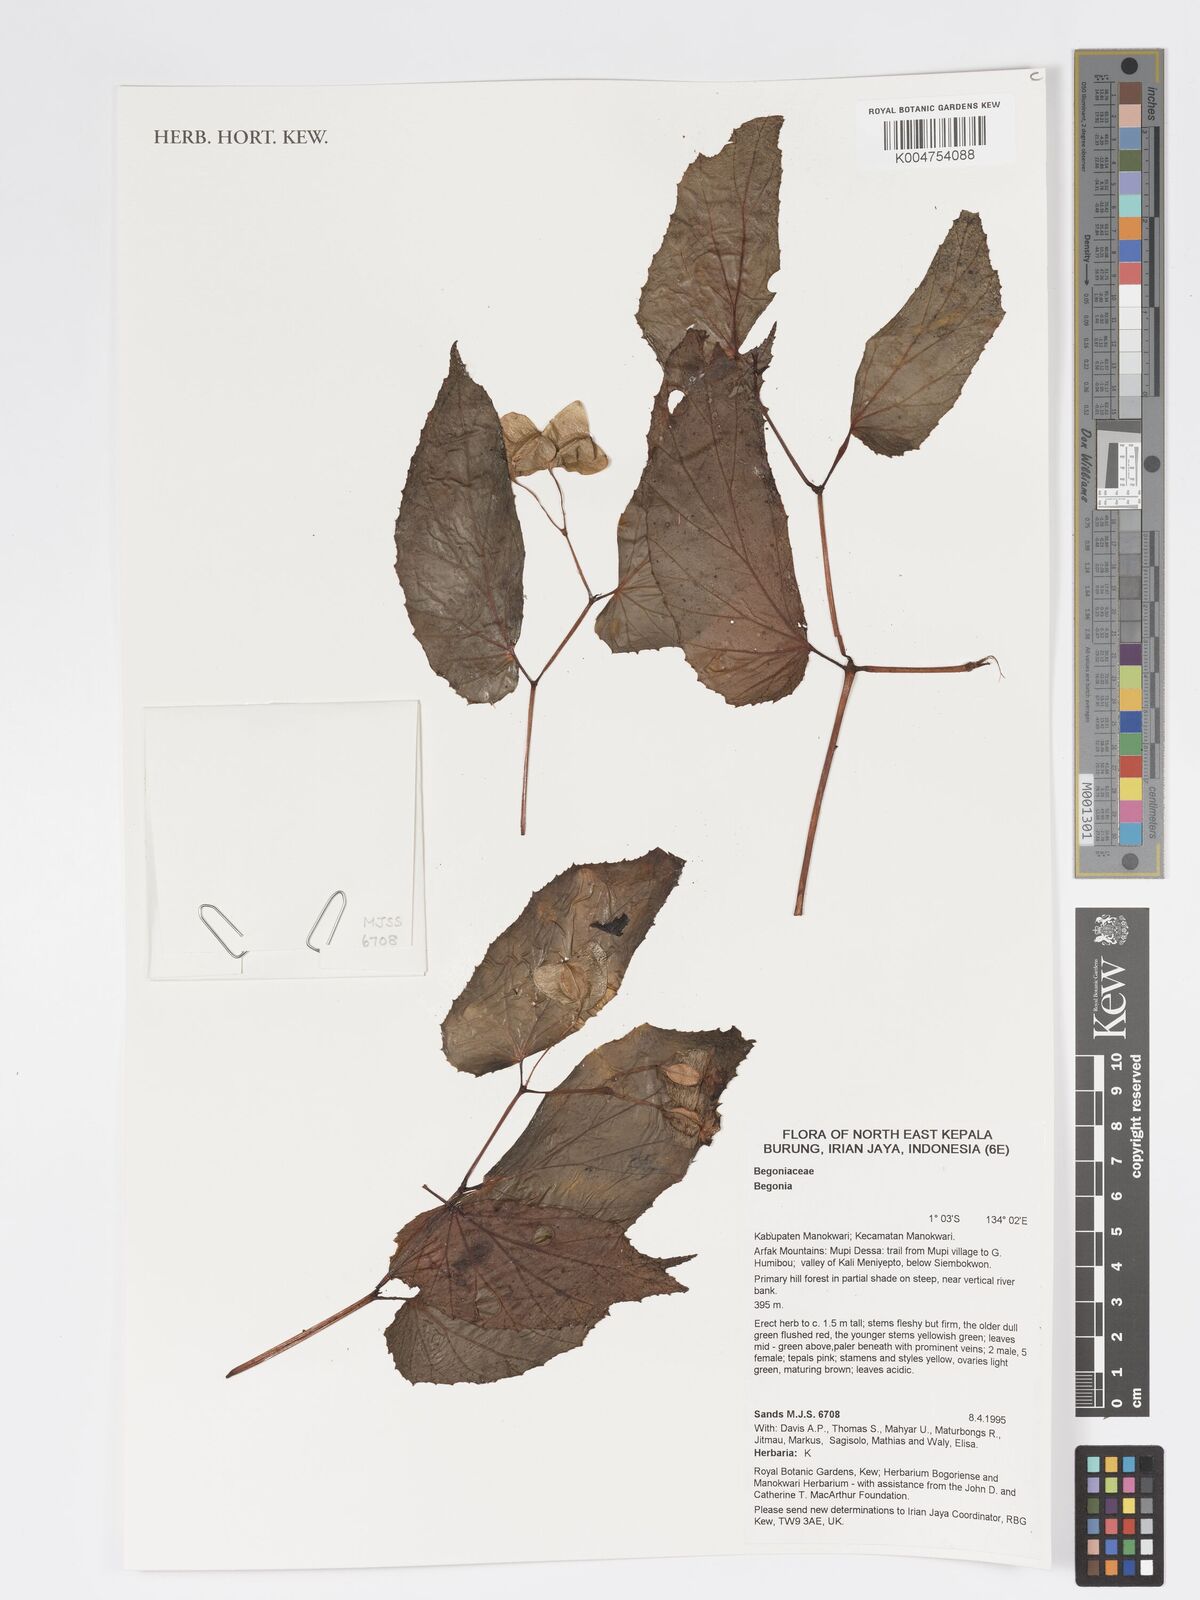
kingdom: Plantae
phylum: Tracheophyta
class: Magnoliopsida
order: Cucurbitales
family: Begoniaceae
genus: Begonia
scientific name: Begonia
